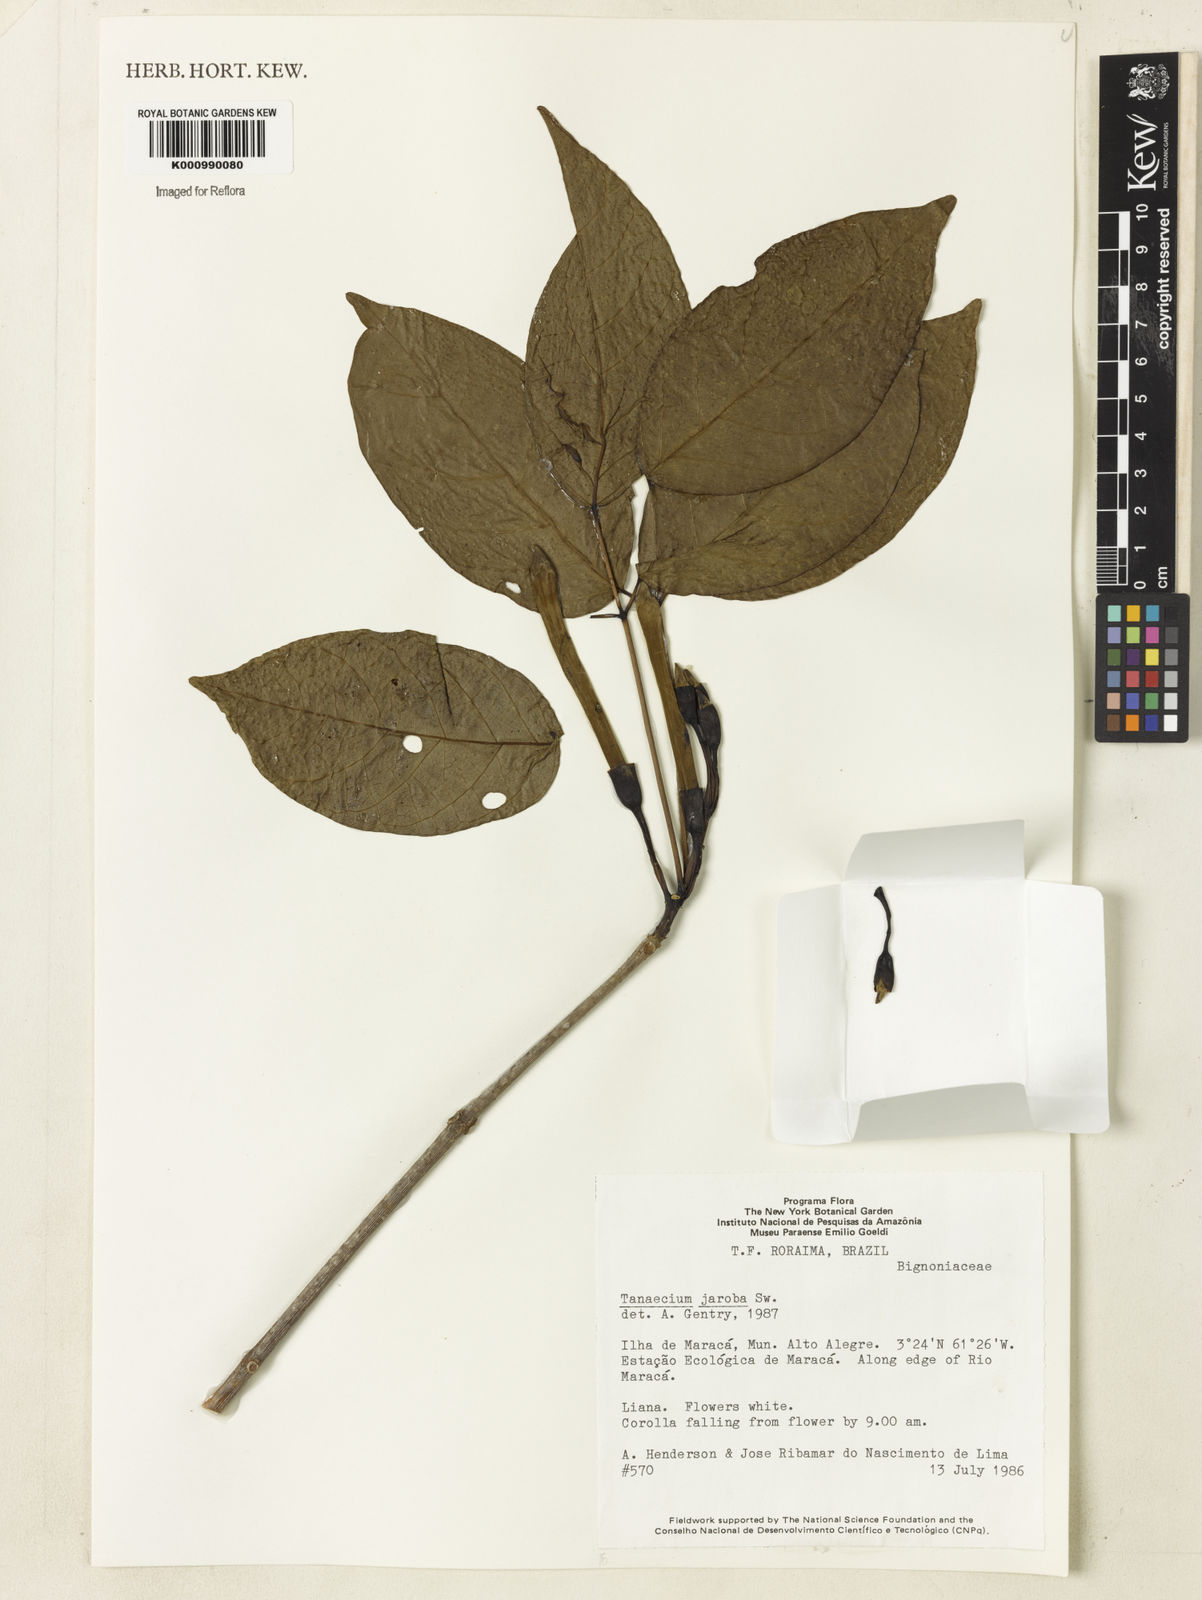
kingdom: Plantae
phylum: Tracheophyta
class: Magnoliopsida
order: Lamiales
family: Bignoniaceae
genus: Tanaecium
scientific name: Tanaecium jaroba
